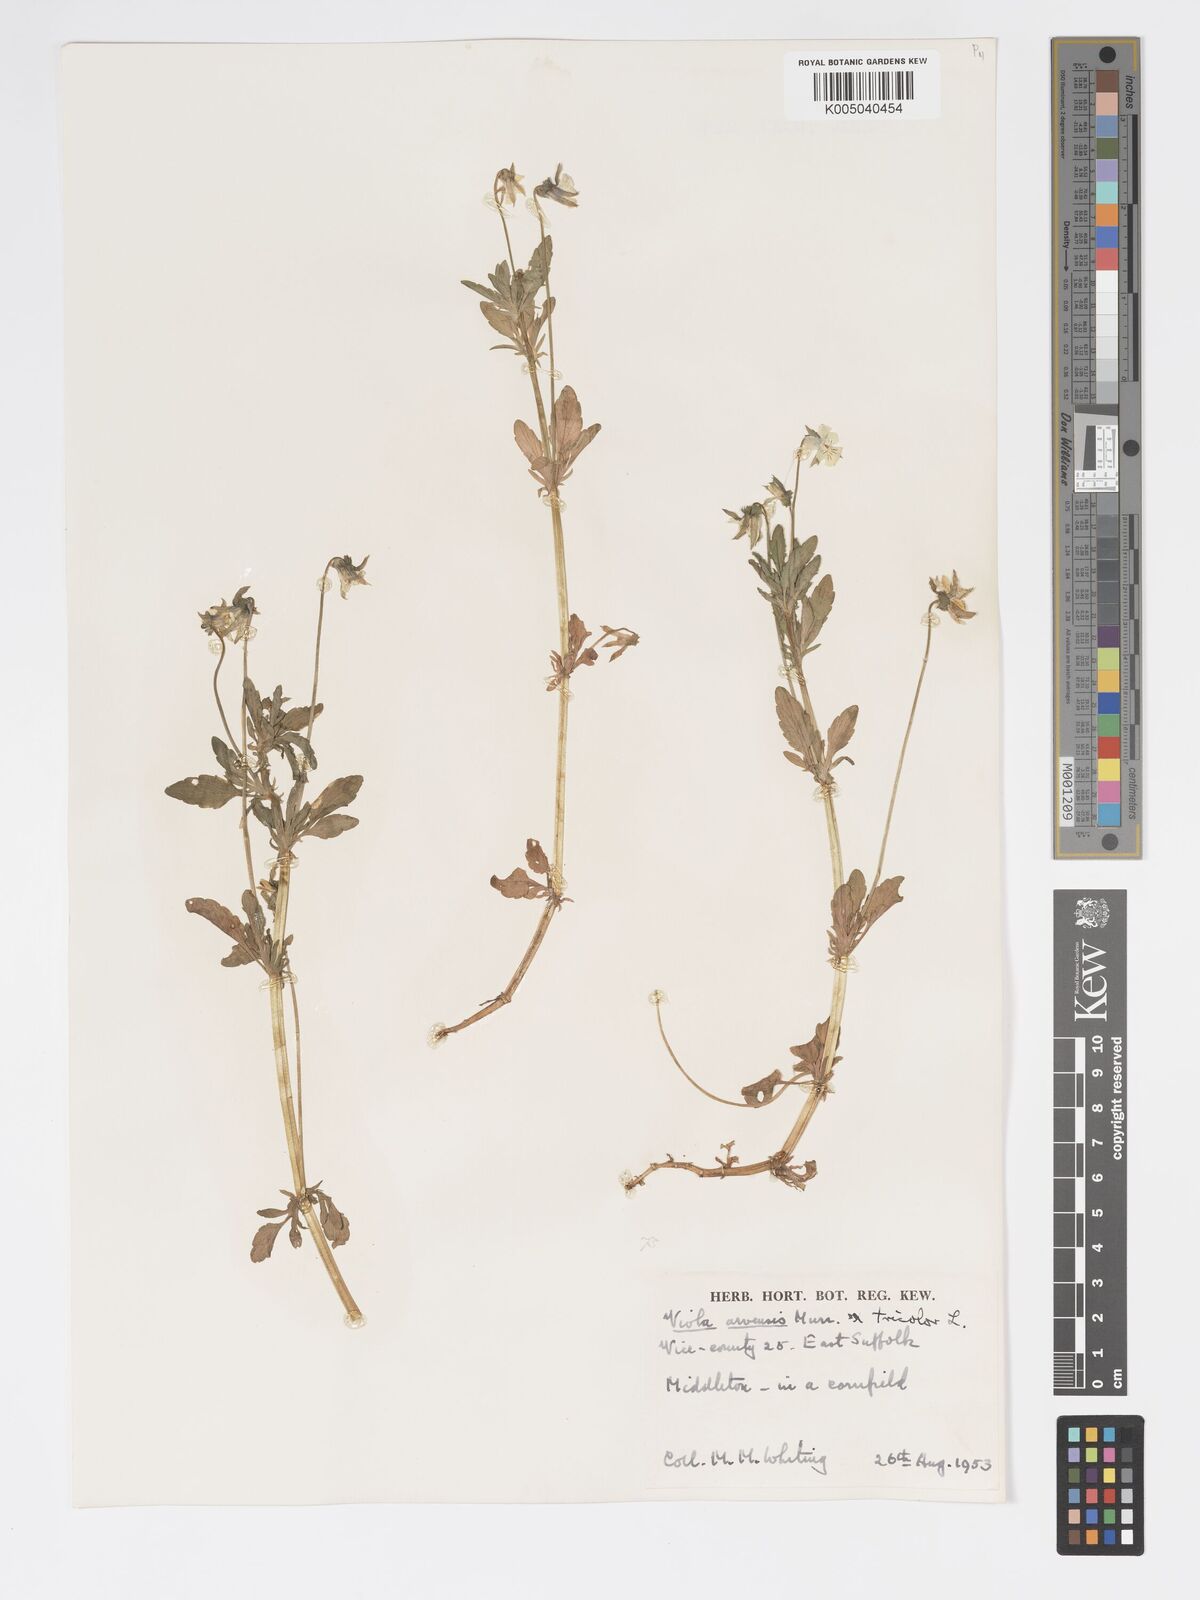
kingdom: Plantae
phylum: Tracheophyta
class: Magnoliopsida
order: Malpighiales
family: Violaceae
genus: Viola
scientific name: Viola arvensis
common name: Field pansy
